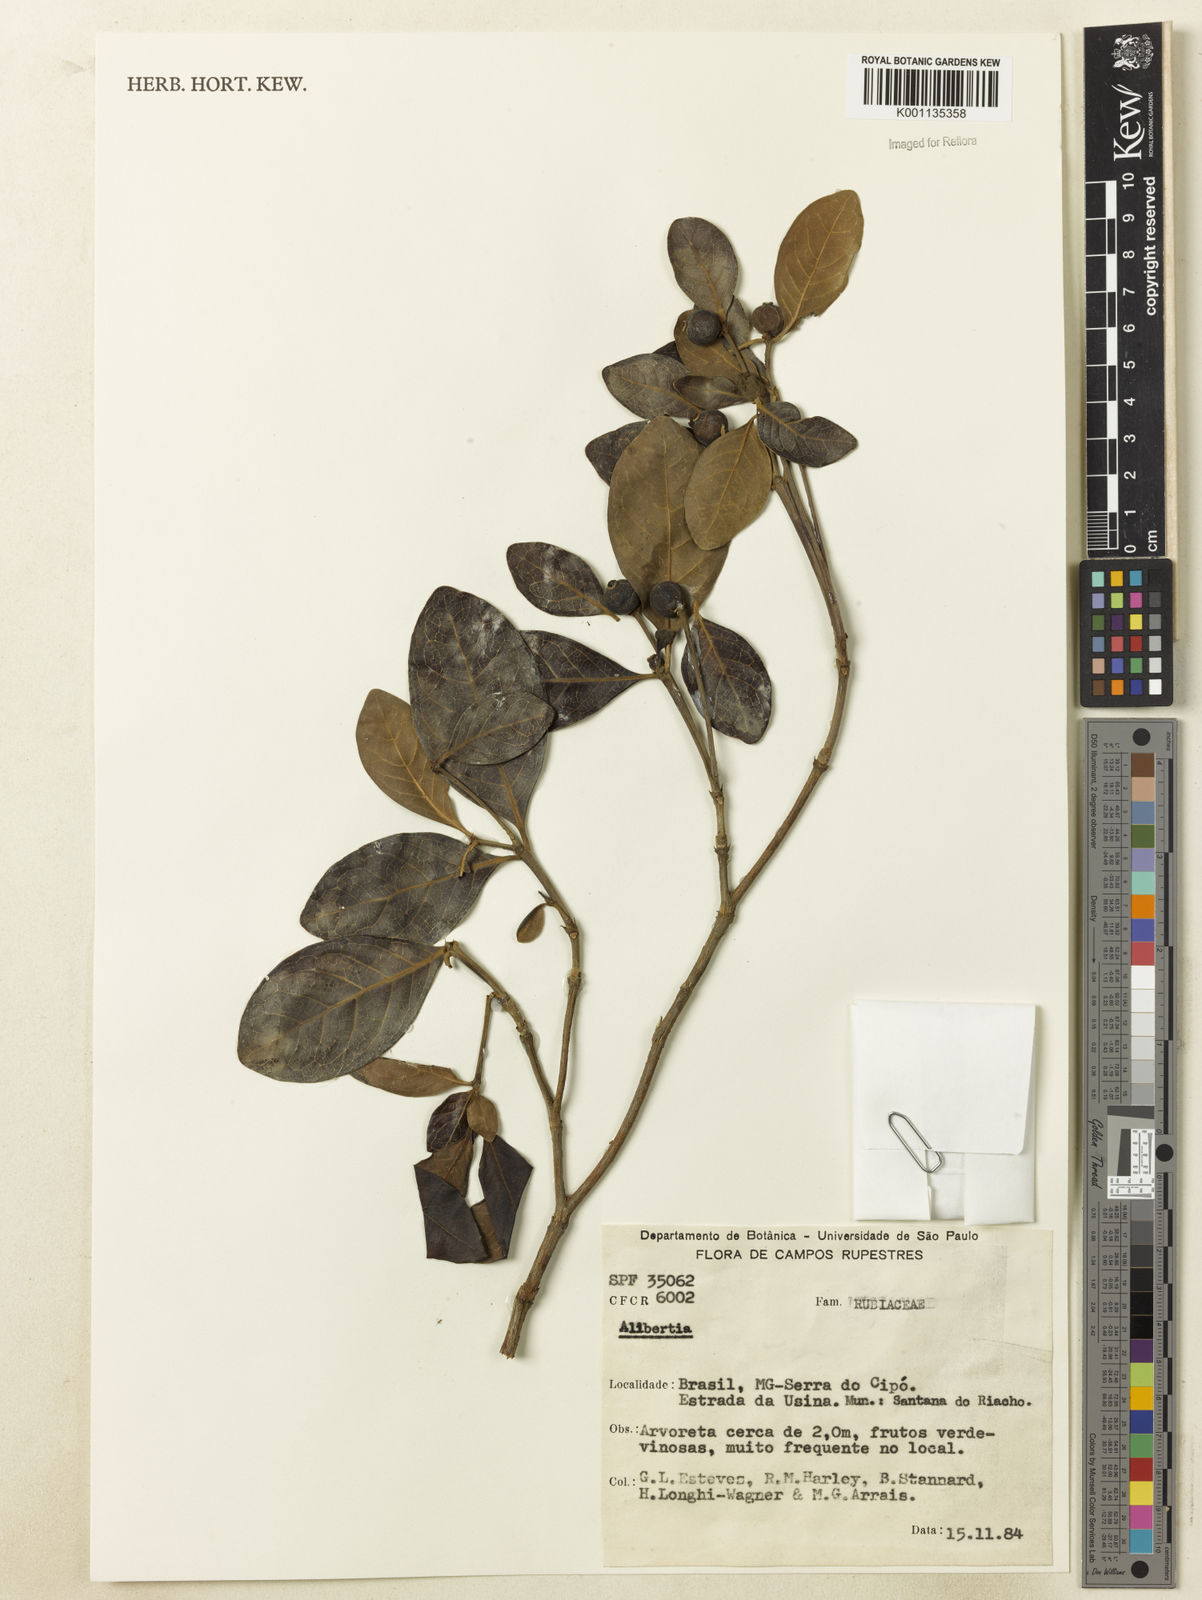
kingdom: Plantae
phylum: Tracheophyta
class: Magnoliopsida
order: Gentianales
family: Rubiaceae
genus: Cordiera
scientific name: Cordiera elliptica
